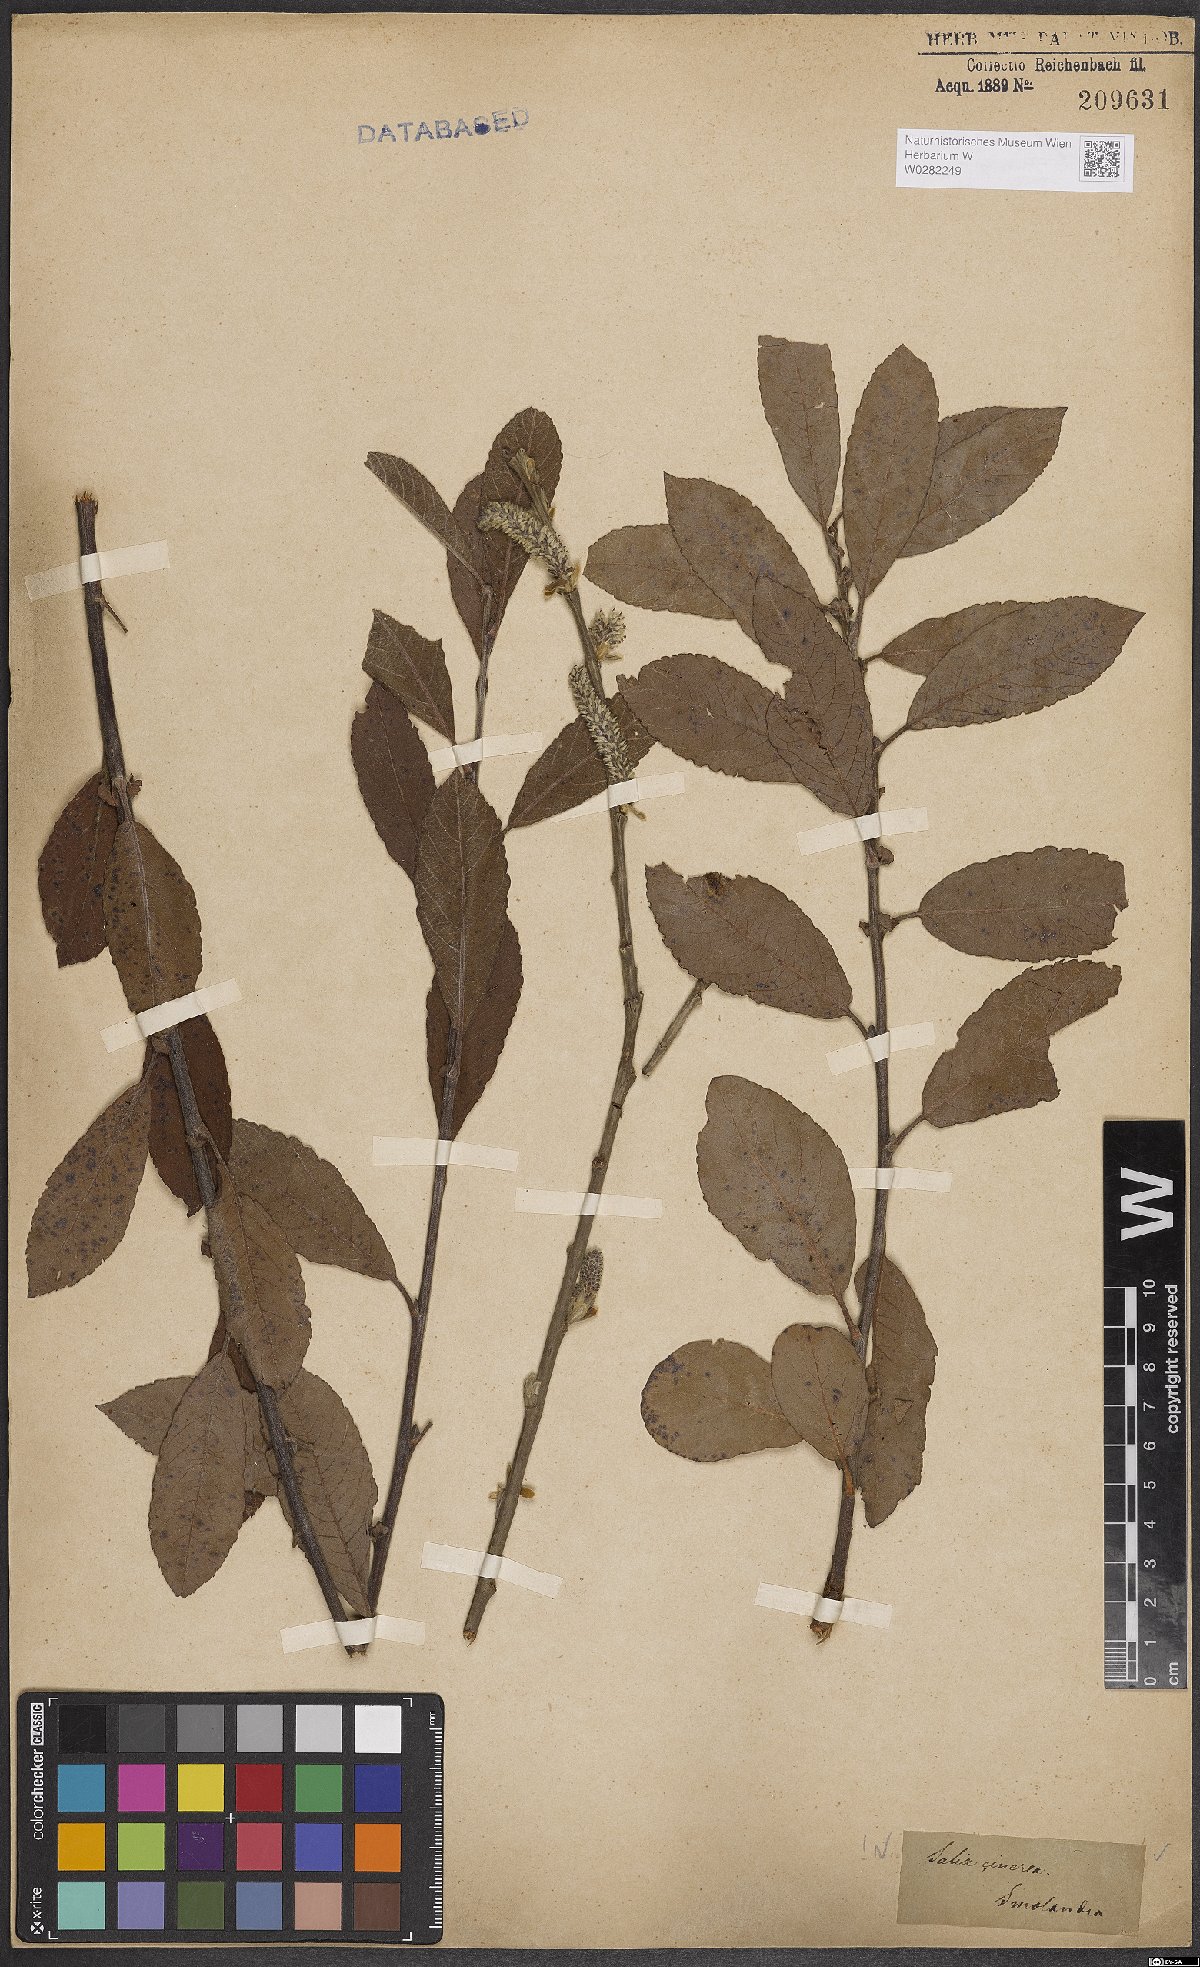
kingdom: Plantae
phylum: Tracheophyta
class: Magnoliopsida
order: Malpighiales
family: Salicaceae
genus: Salix
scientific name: Salix cinerea
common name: Common sallow
